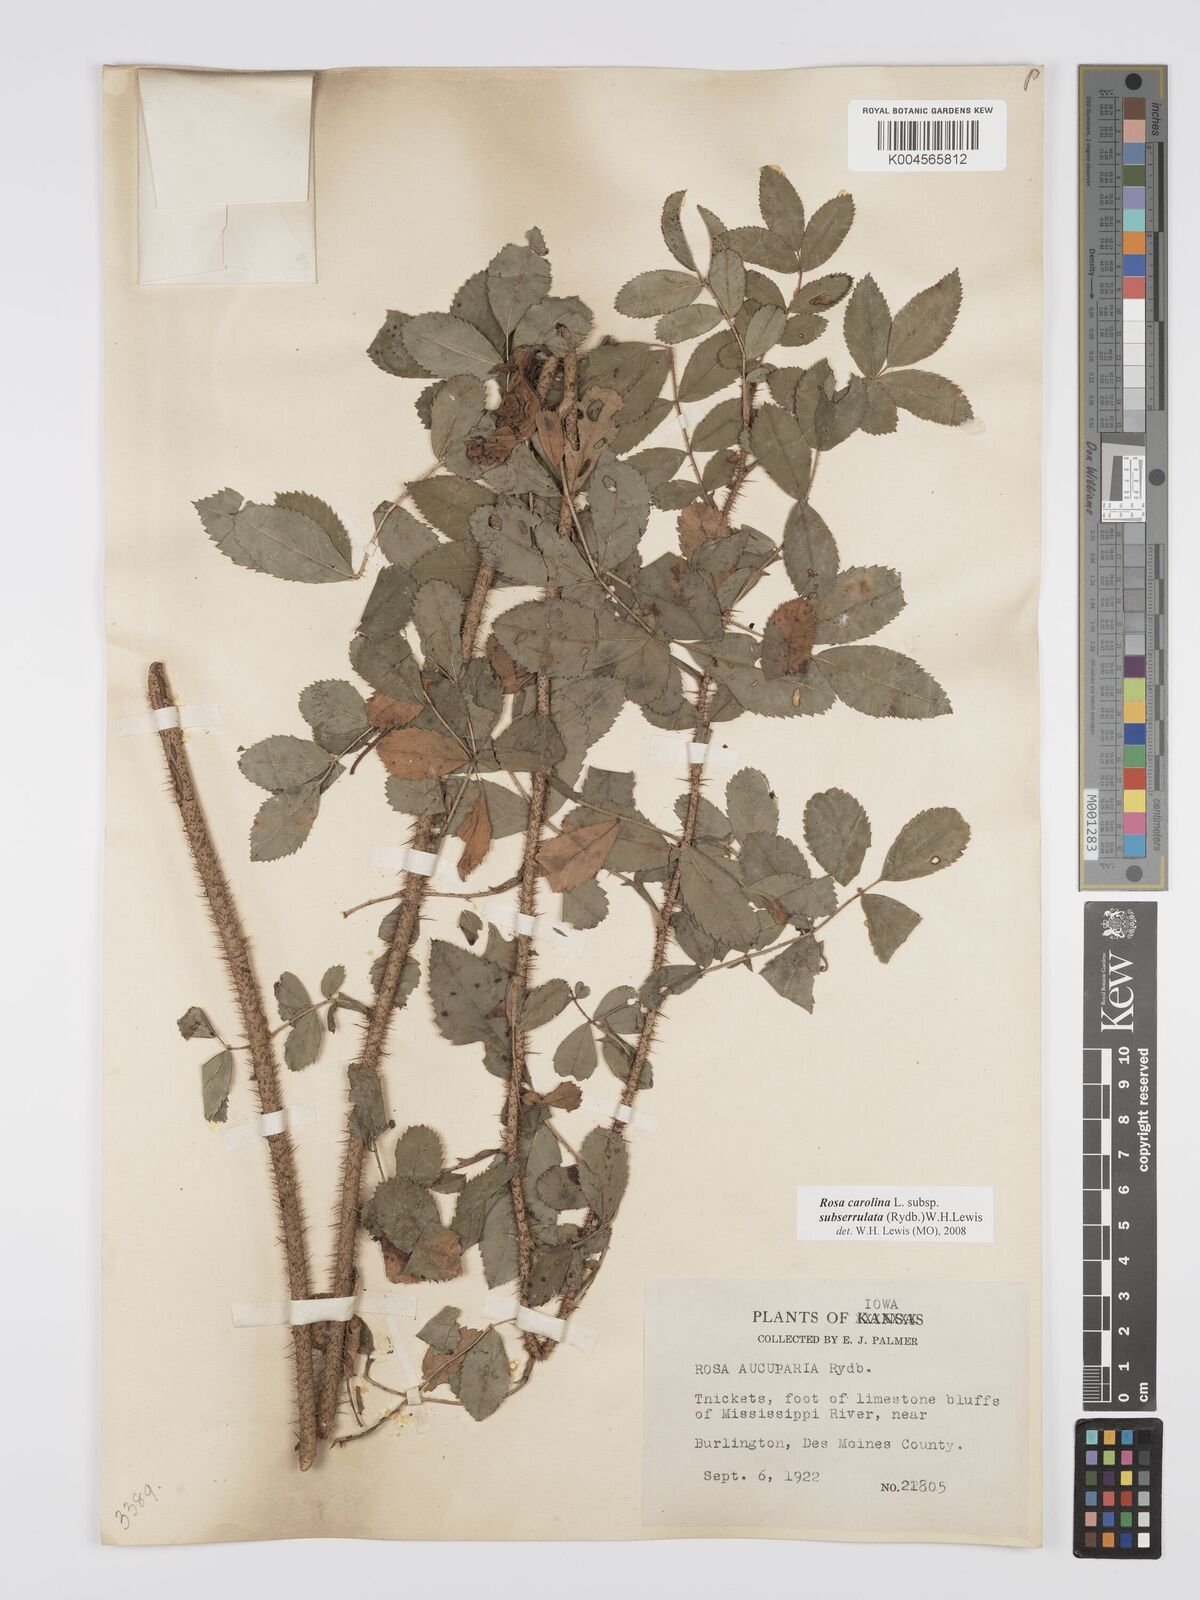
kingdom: Plantae
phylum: Tracheophyta
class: Magnoliopsida
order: Rosales
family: Rosaceae
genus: Rosa
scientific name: Rosa carolina
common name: Pasture rose
